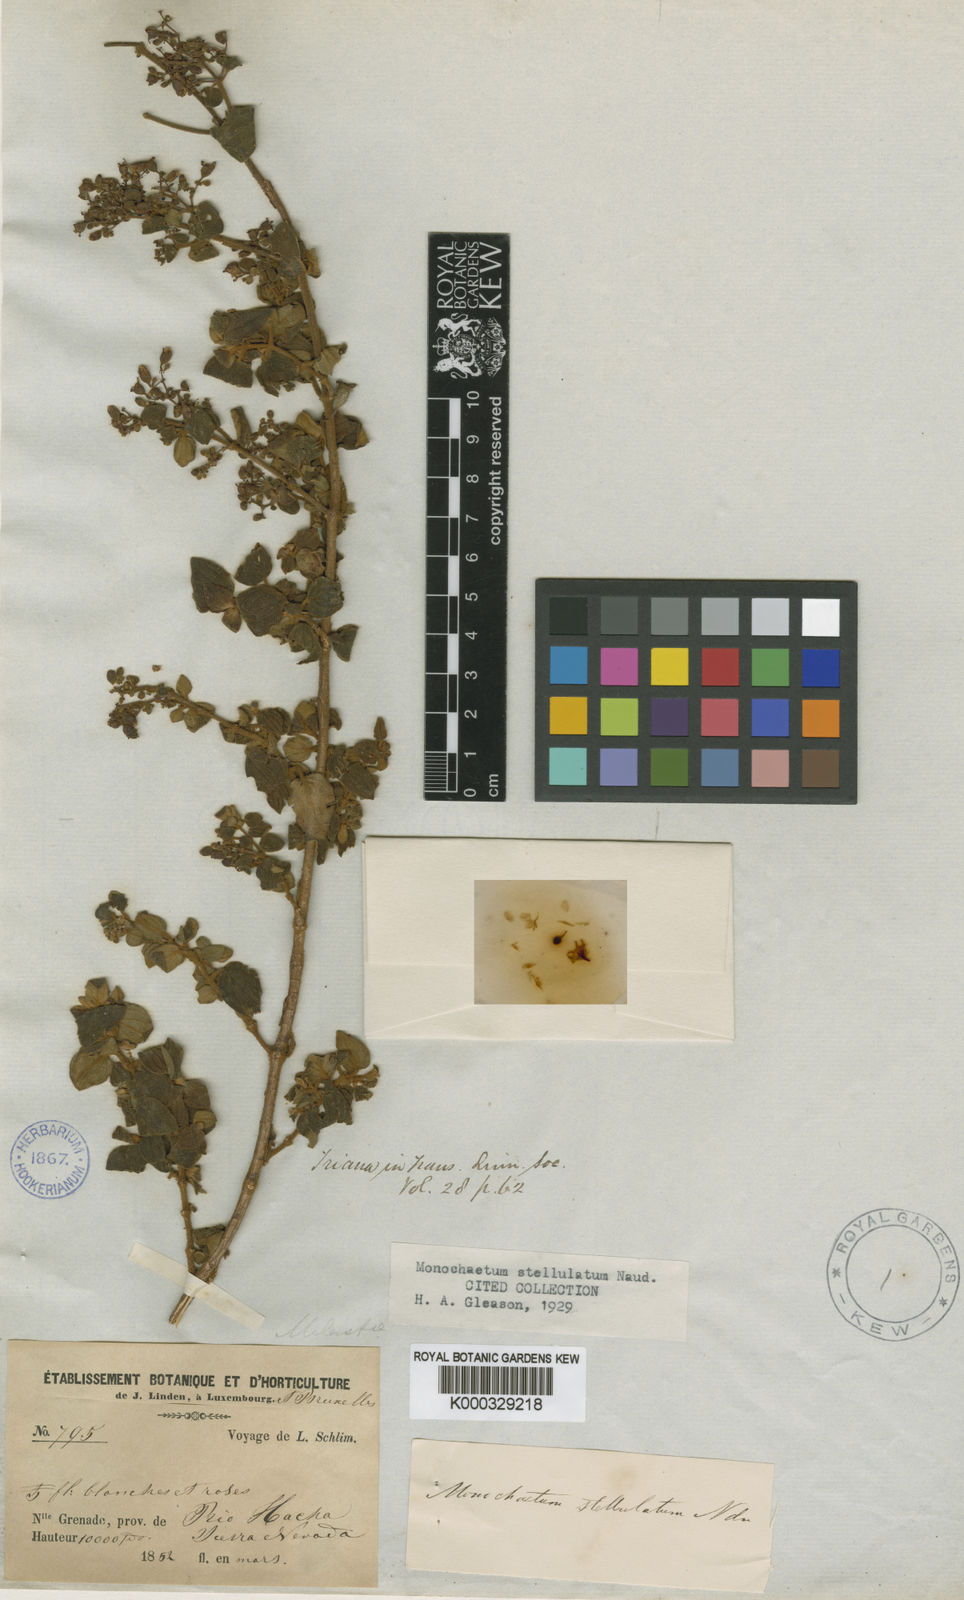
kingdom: Plantae
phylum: Tracheophyta
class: Magnoliopsida
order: Myrtales
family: Melastomataceae
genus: Monochaetum
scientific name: Monochaetum stellulatum
